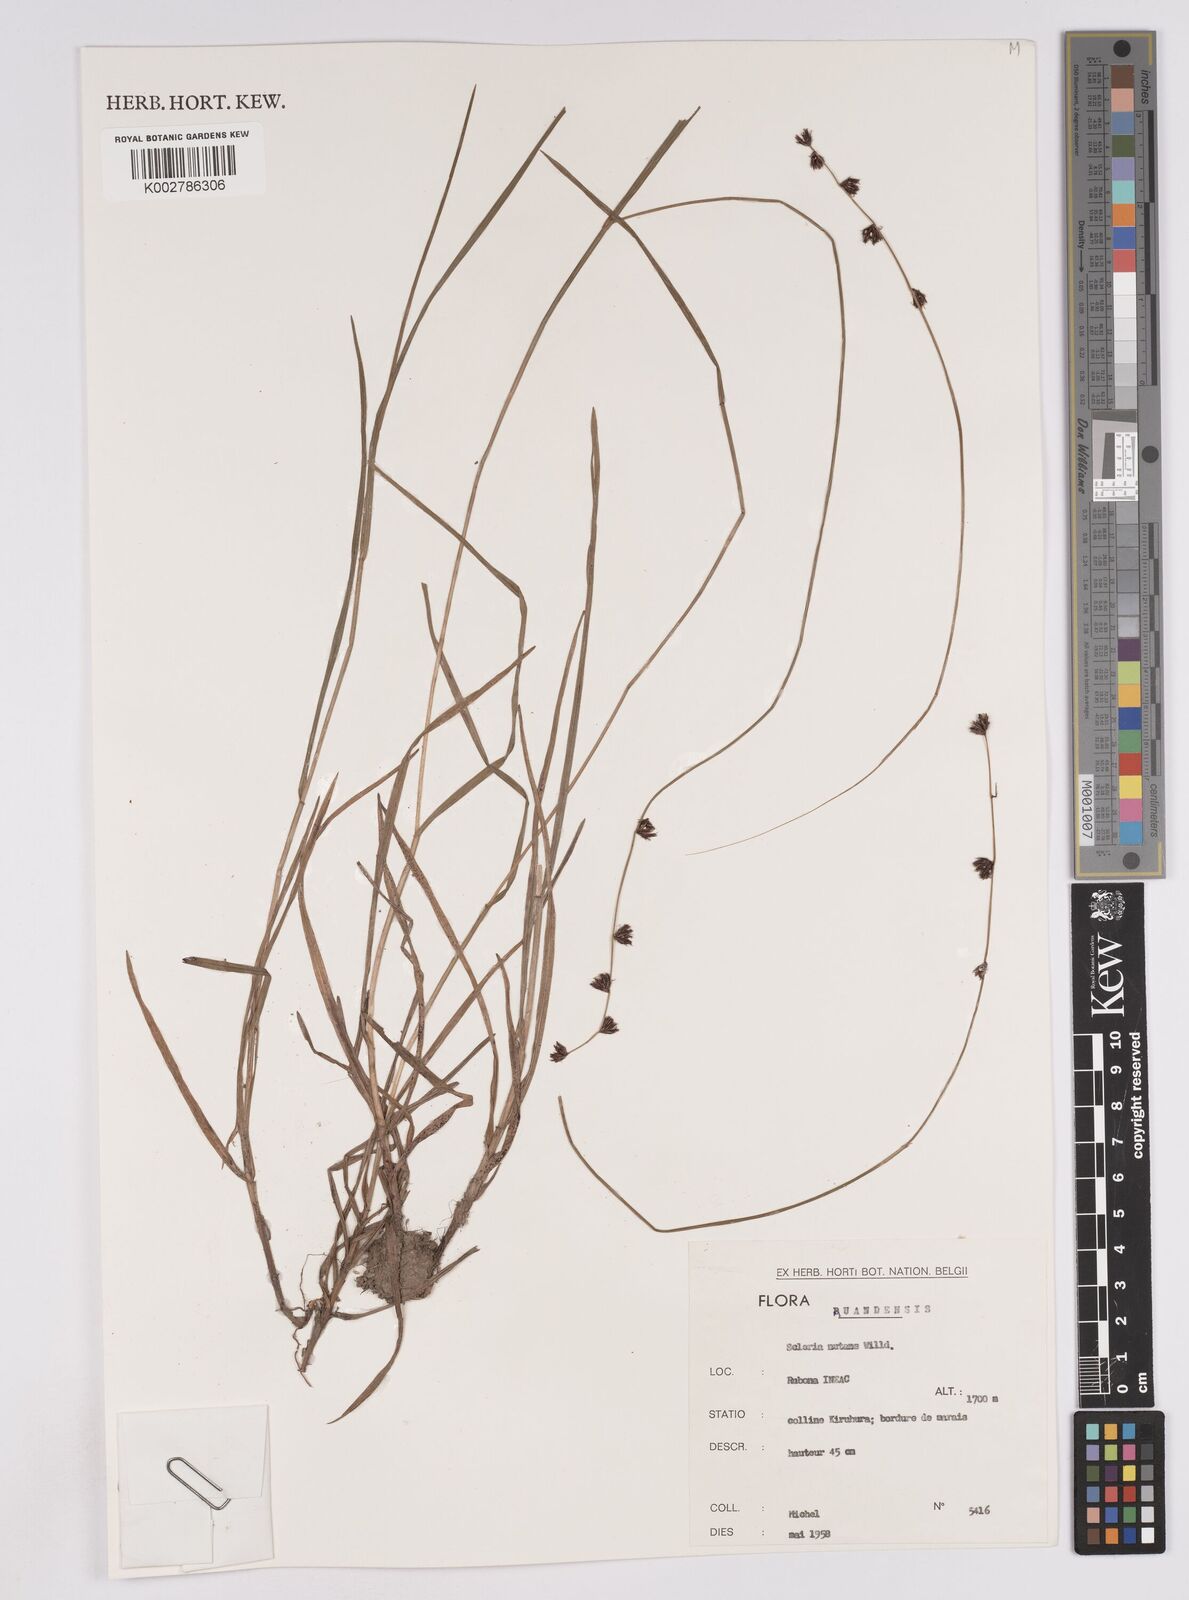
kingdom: Plantae
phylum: Tracheophyta
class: Liliopsida
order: Poales
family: Cyperaceae
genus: Scleria
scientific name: Scleria brownii
